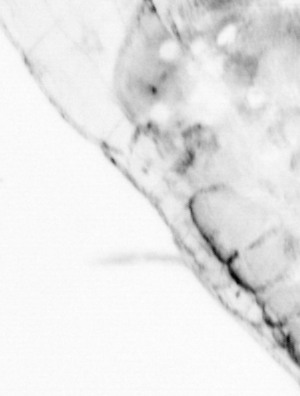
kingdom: Animalia
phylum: Chaetognatha
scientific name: Chaetognatha
